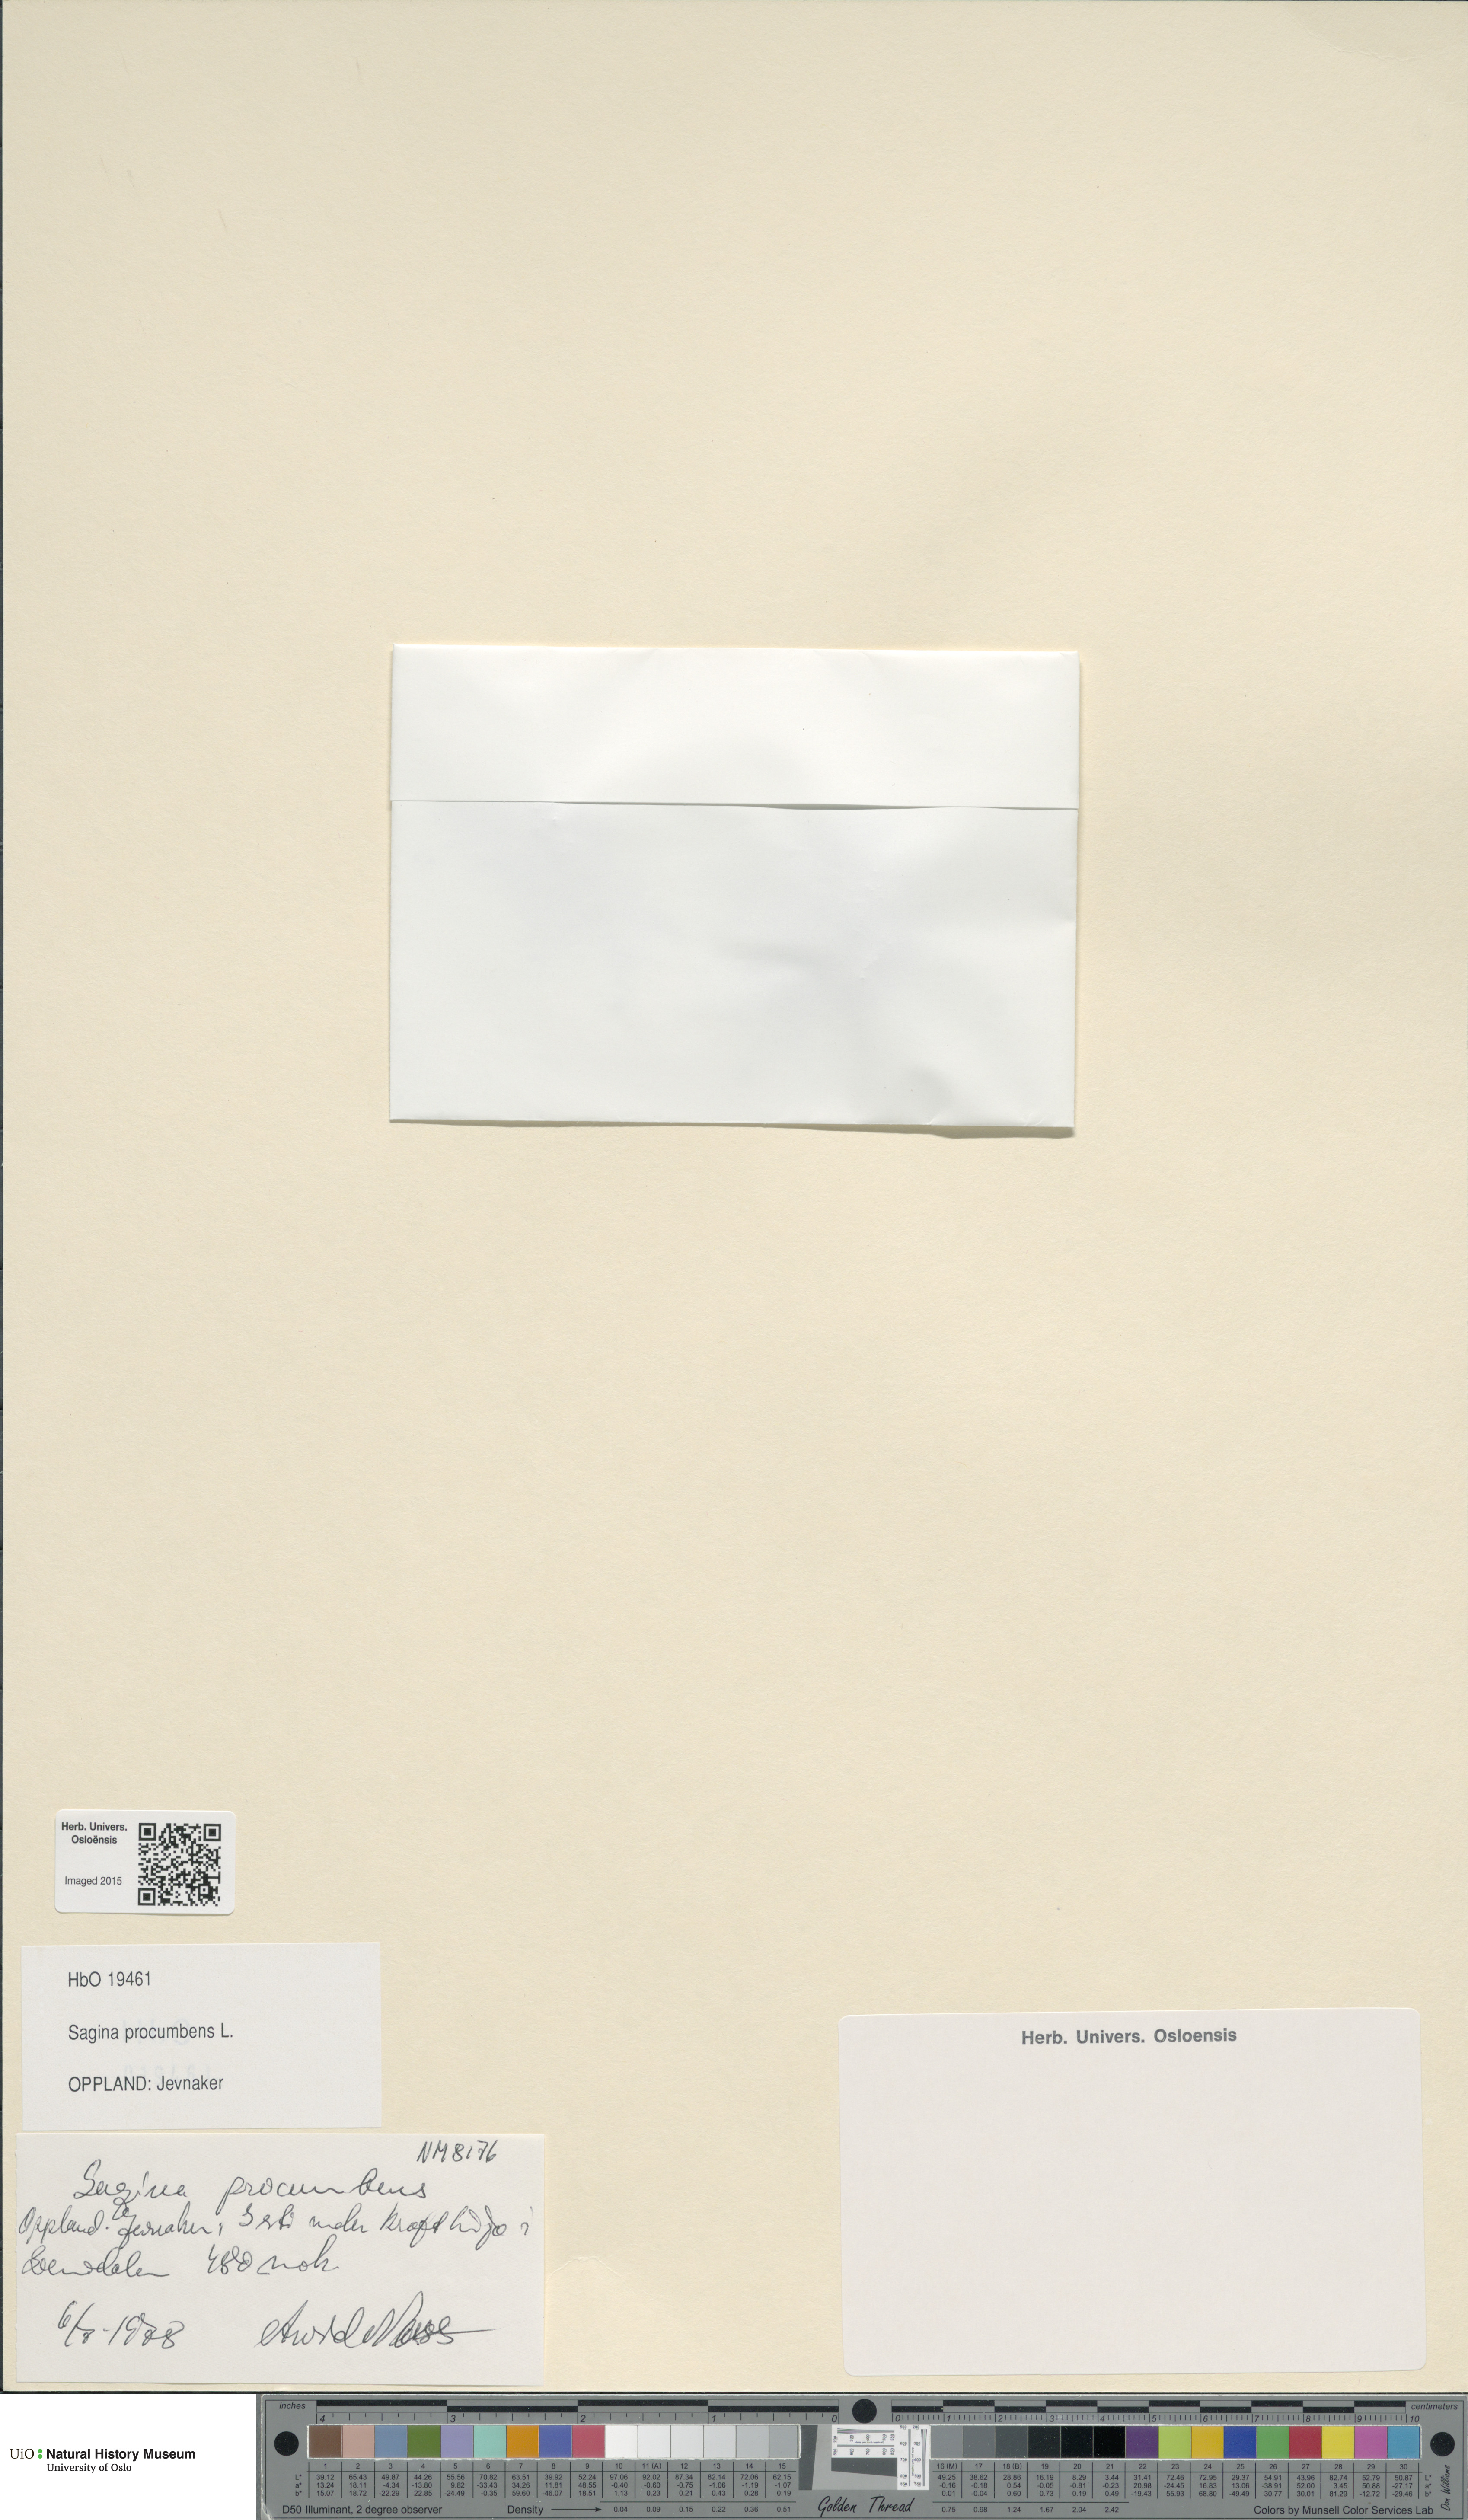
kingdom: Plantae
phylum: Tracheophyta
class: Magnoliopsida
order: Caryophyllales
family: Caryophyllaceae
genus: Sagina
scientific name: Sagina procumbens
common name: Procumbent pearlwort
